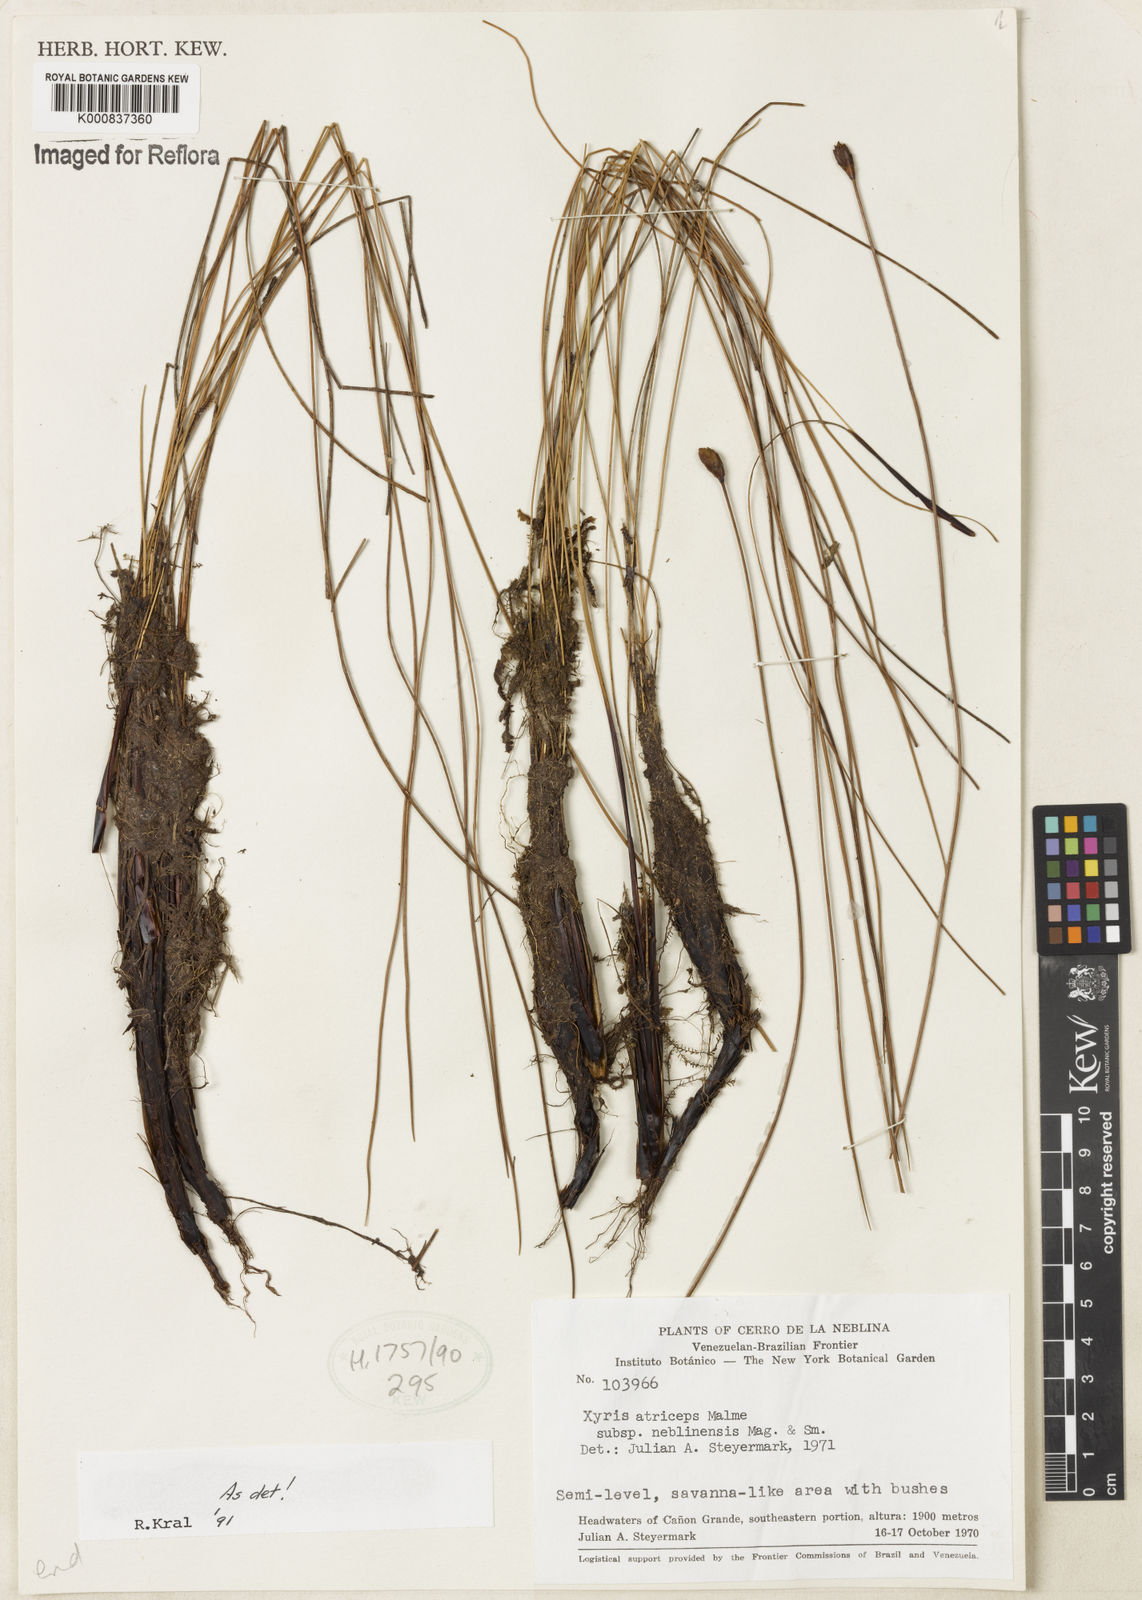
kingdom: Plantae
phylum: Tracheophyta
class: Liliopsida
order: Poales
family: Xyridaceae
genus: Xyris
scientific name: Xyris atriceps
